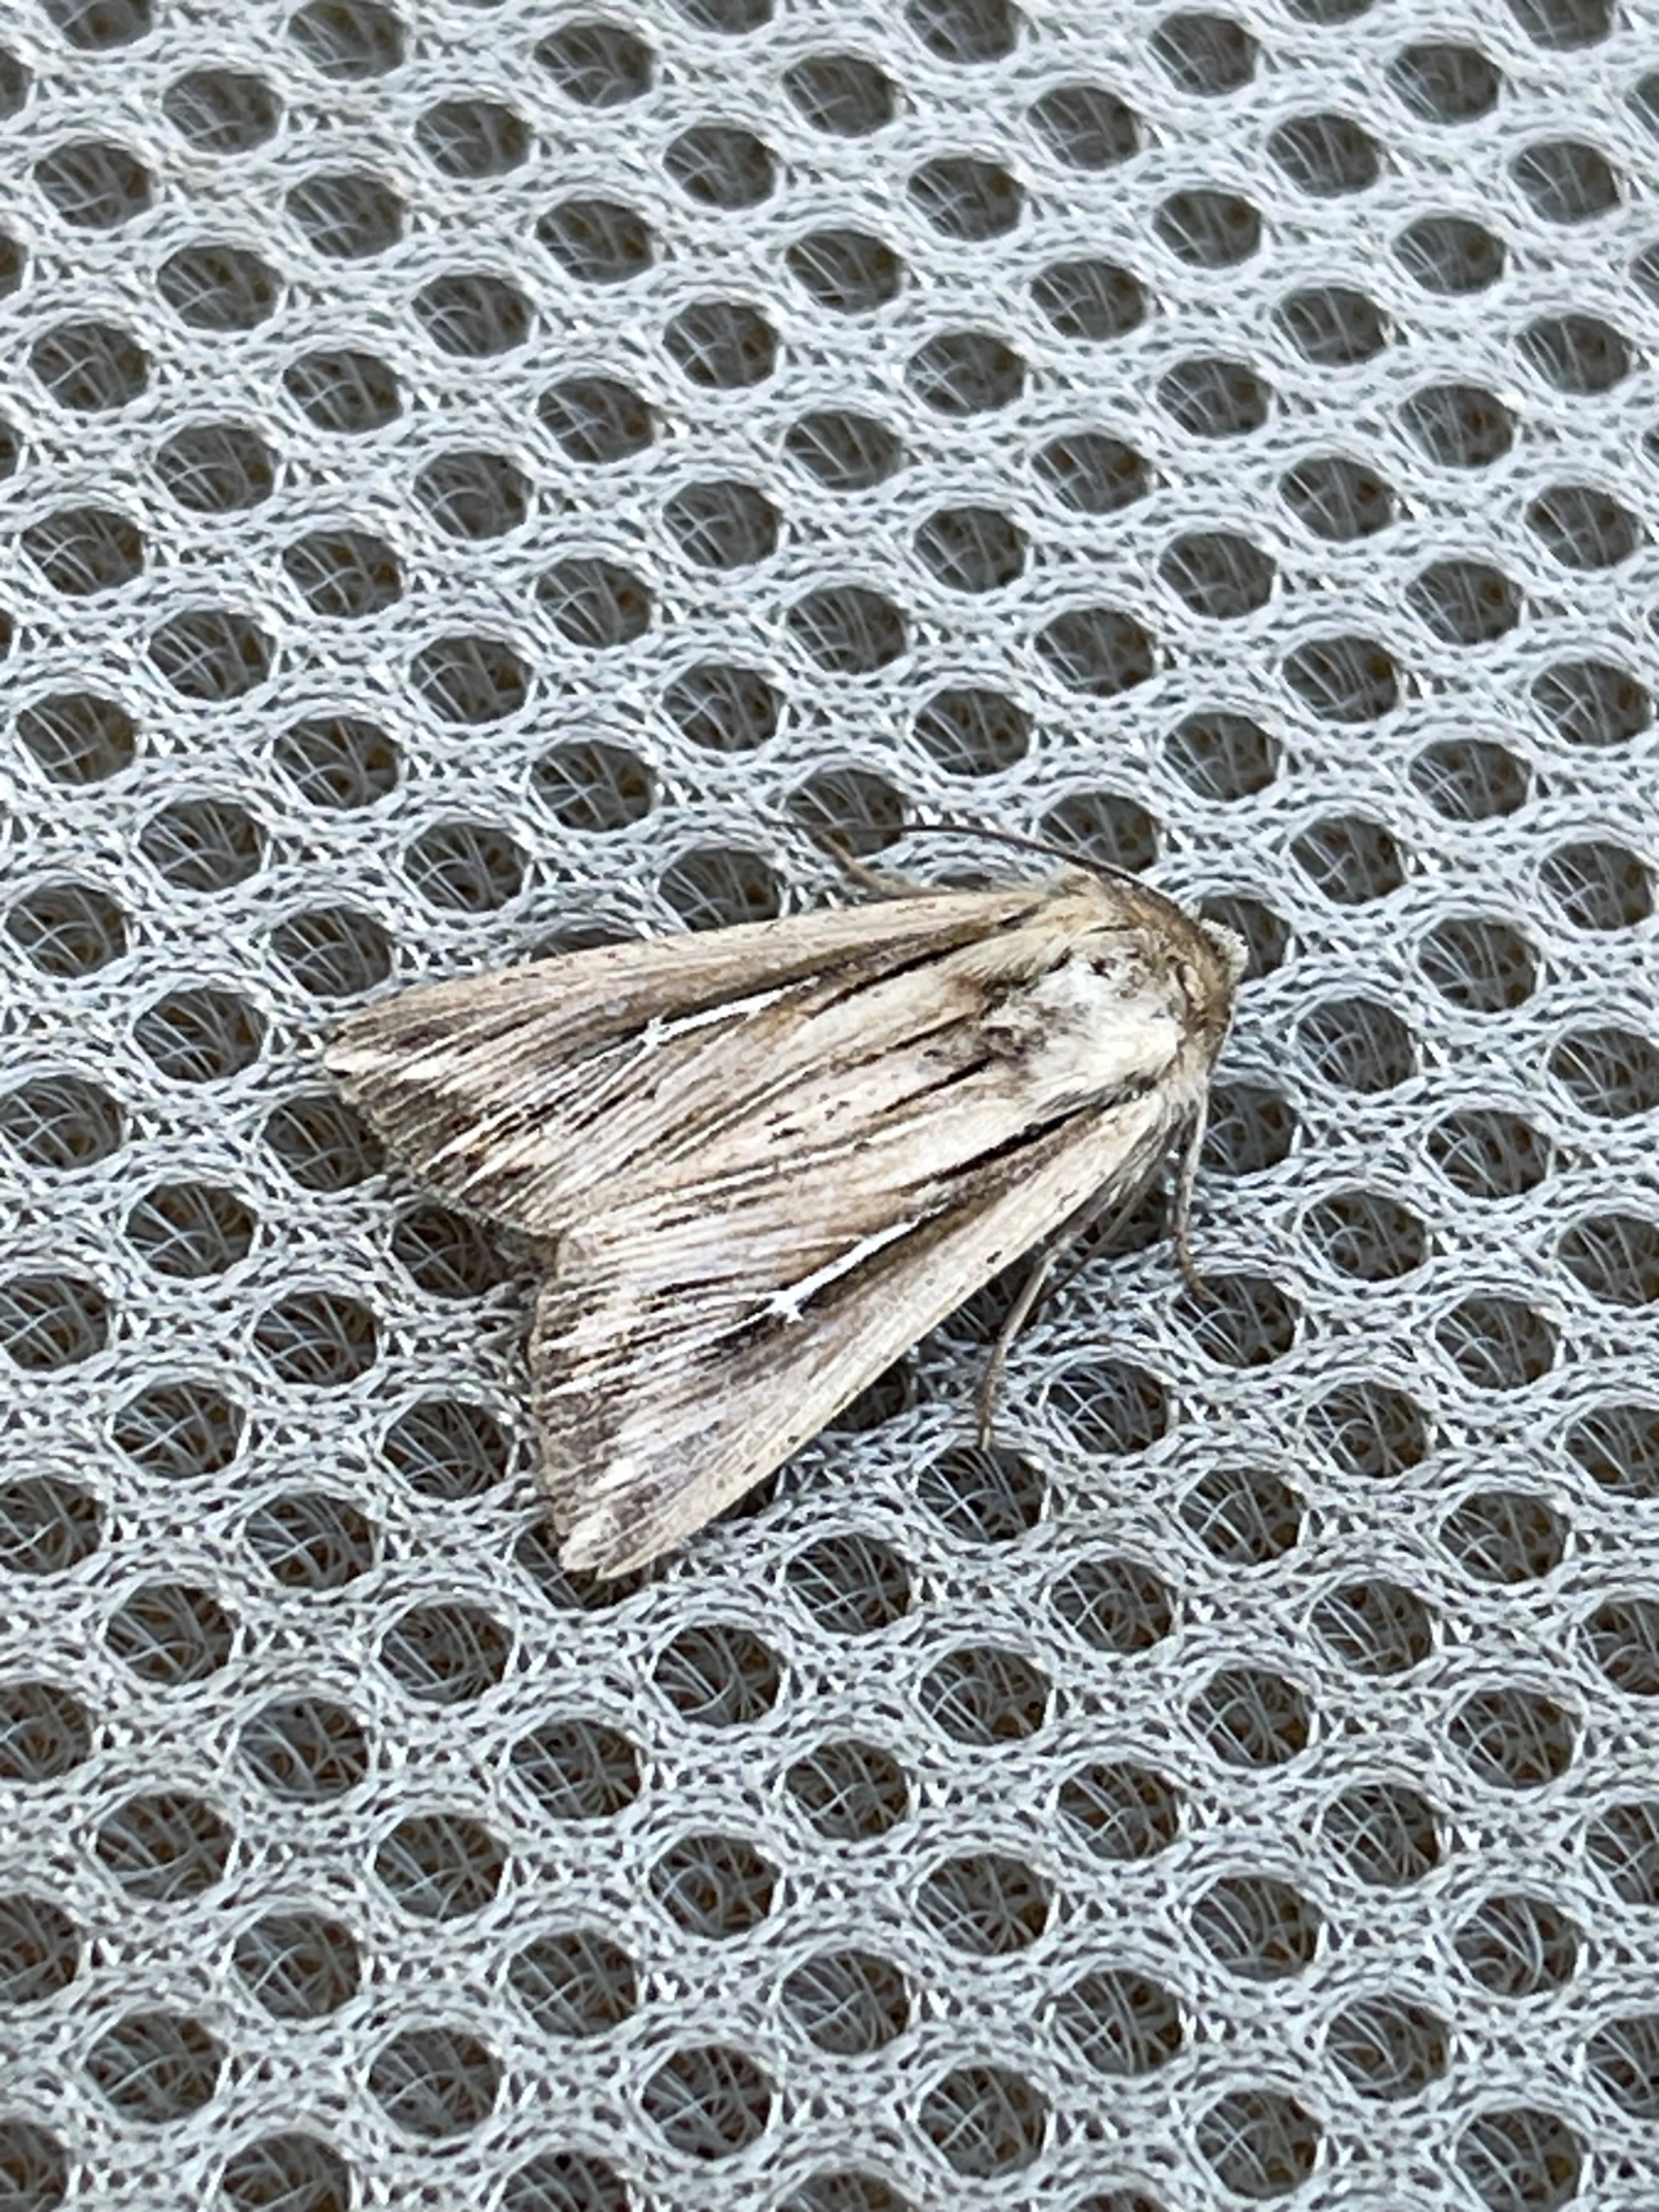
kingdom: Animalia
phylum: Arthropoda
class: Insecta
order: Lepidoptera
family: Noctuidae
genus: Mythimna
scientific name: Mythimna l-album
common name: Det store L
